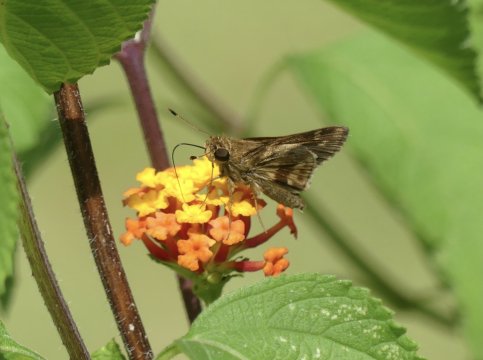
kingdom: Animalia
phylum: Arthropoda
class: Insecta
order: Lepidoptera
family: Hesperiidae
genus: Nyctelius
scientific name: Nyctelius nyctelius
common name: Violet-banded Skipper
